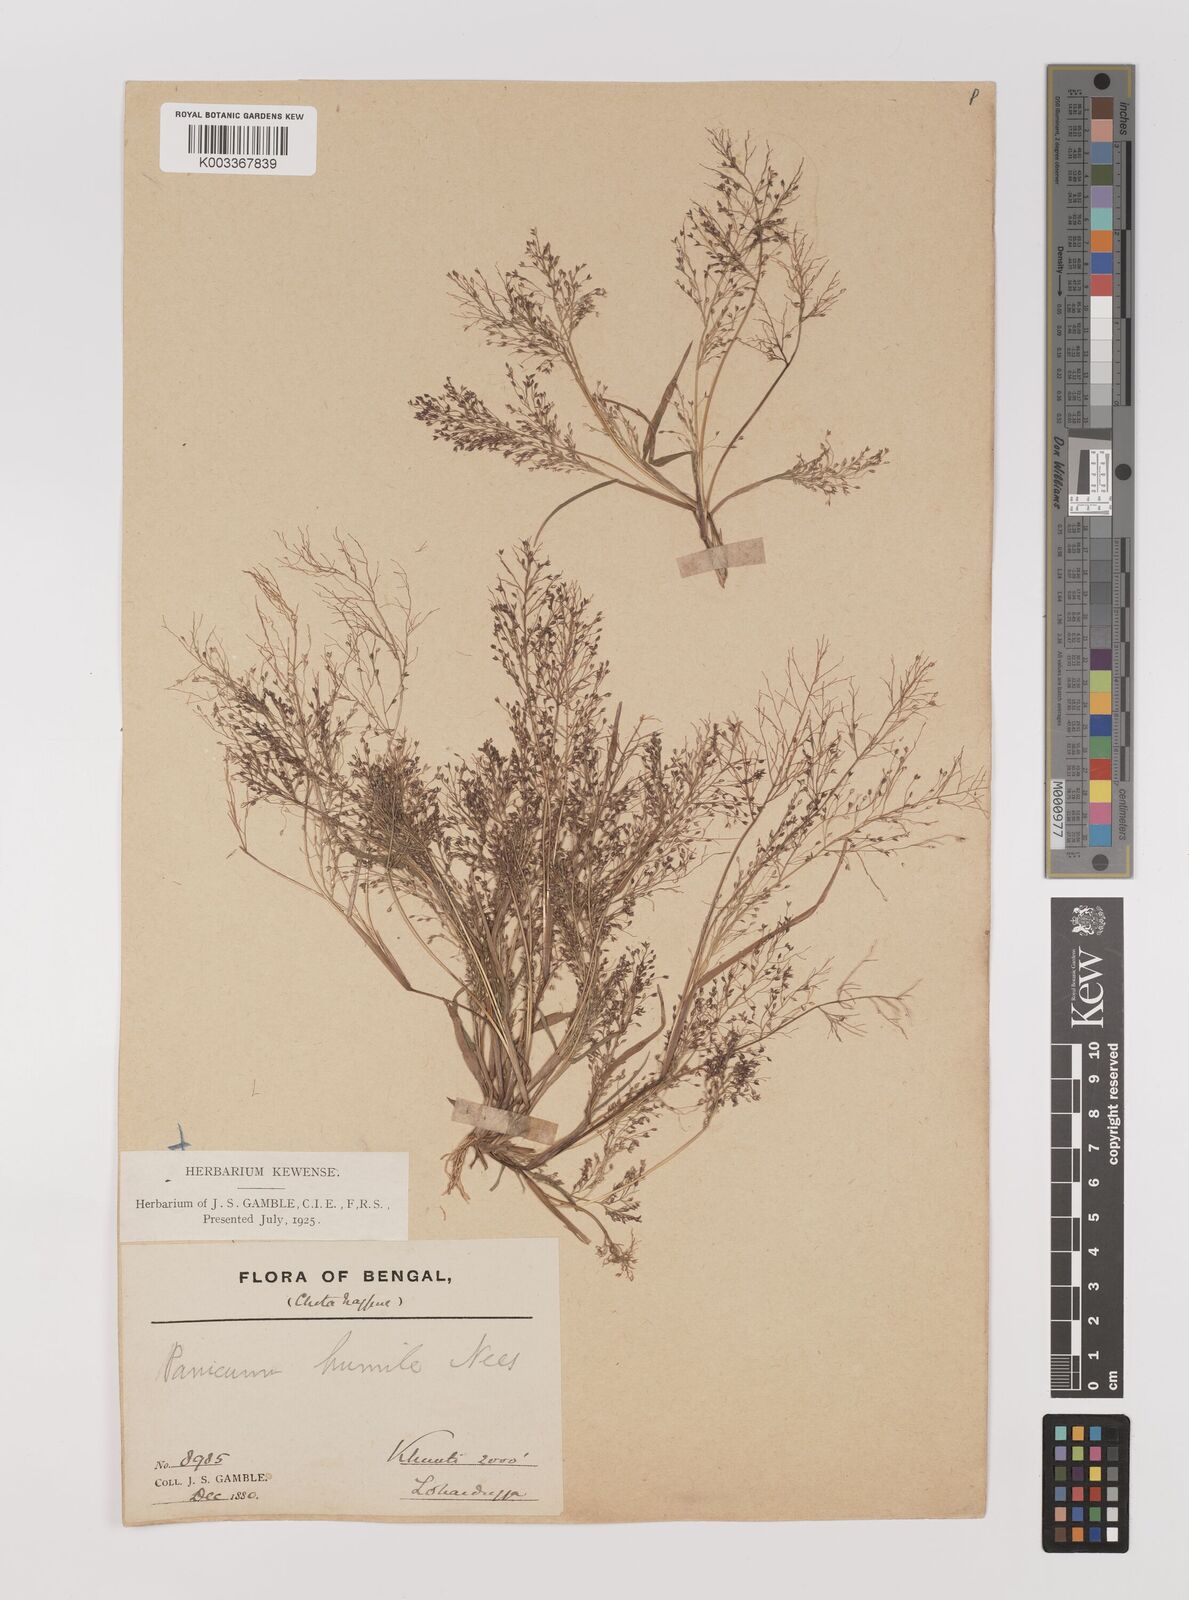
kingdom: Plantae
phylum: Tracheophyta
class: Liliopsida
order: Poales
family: Poaceae
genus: Panicum
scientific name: Panicum humile
